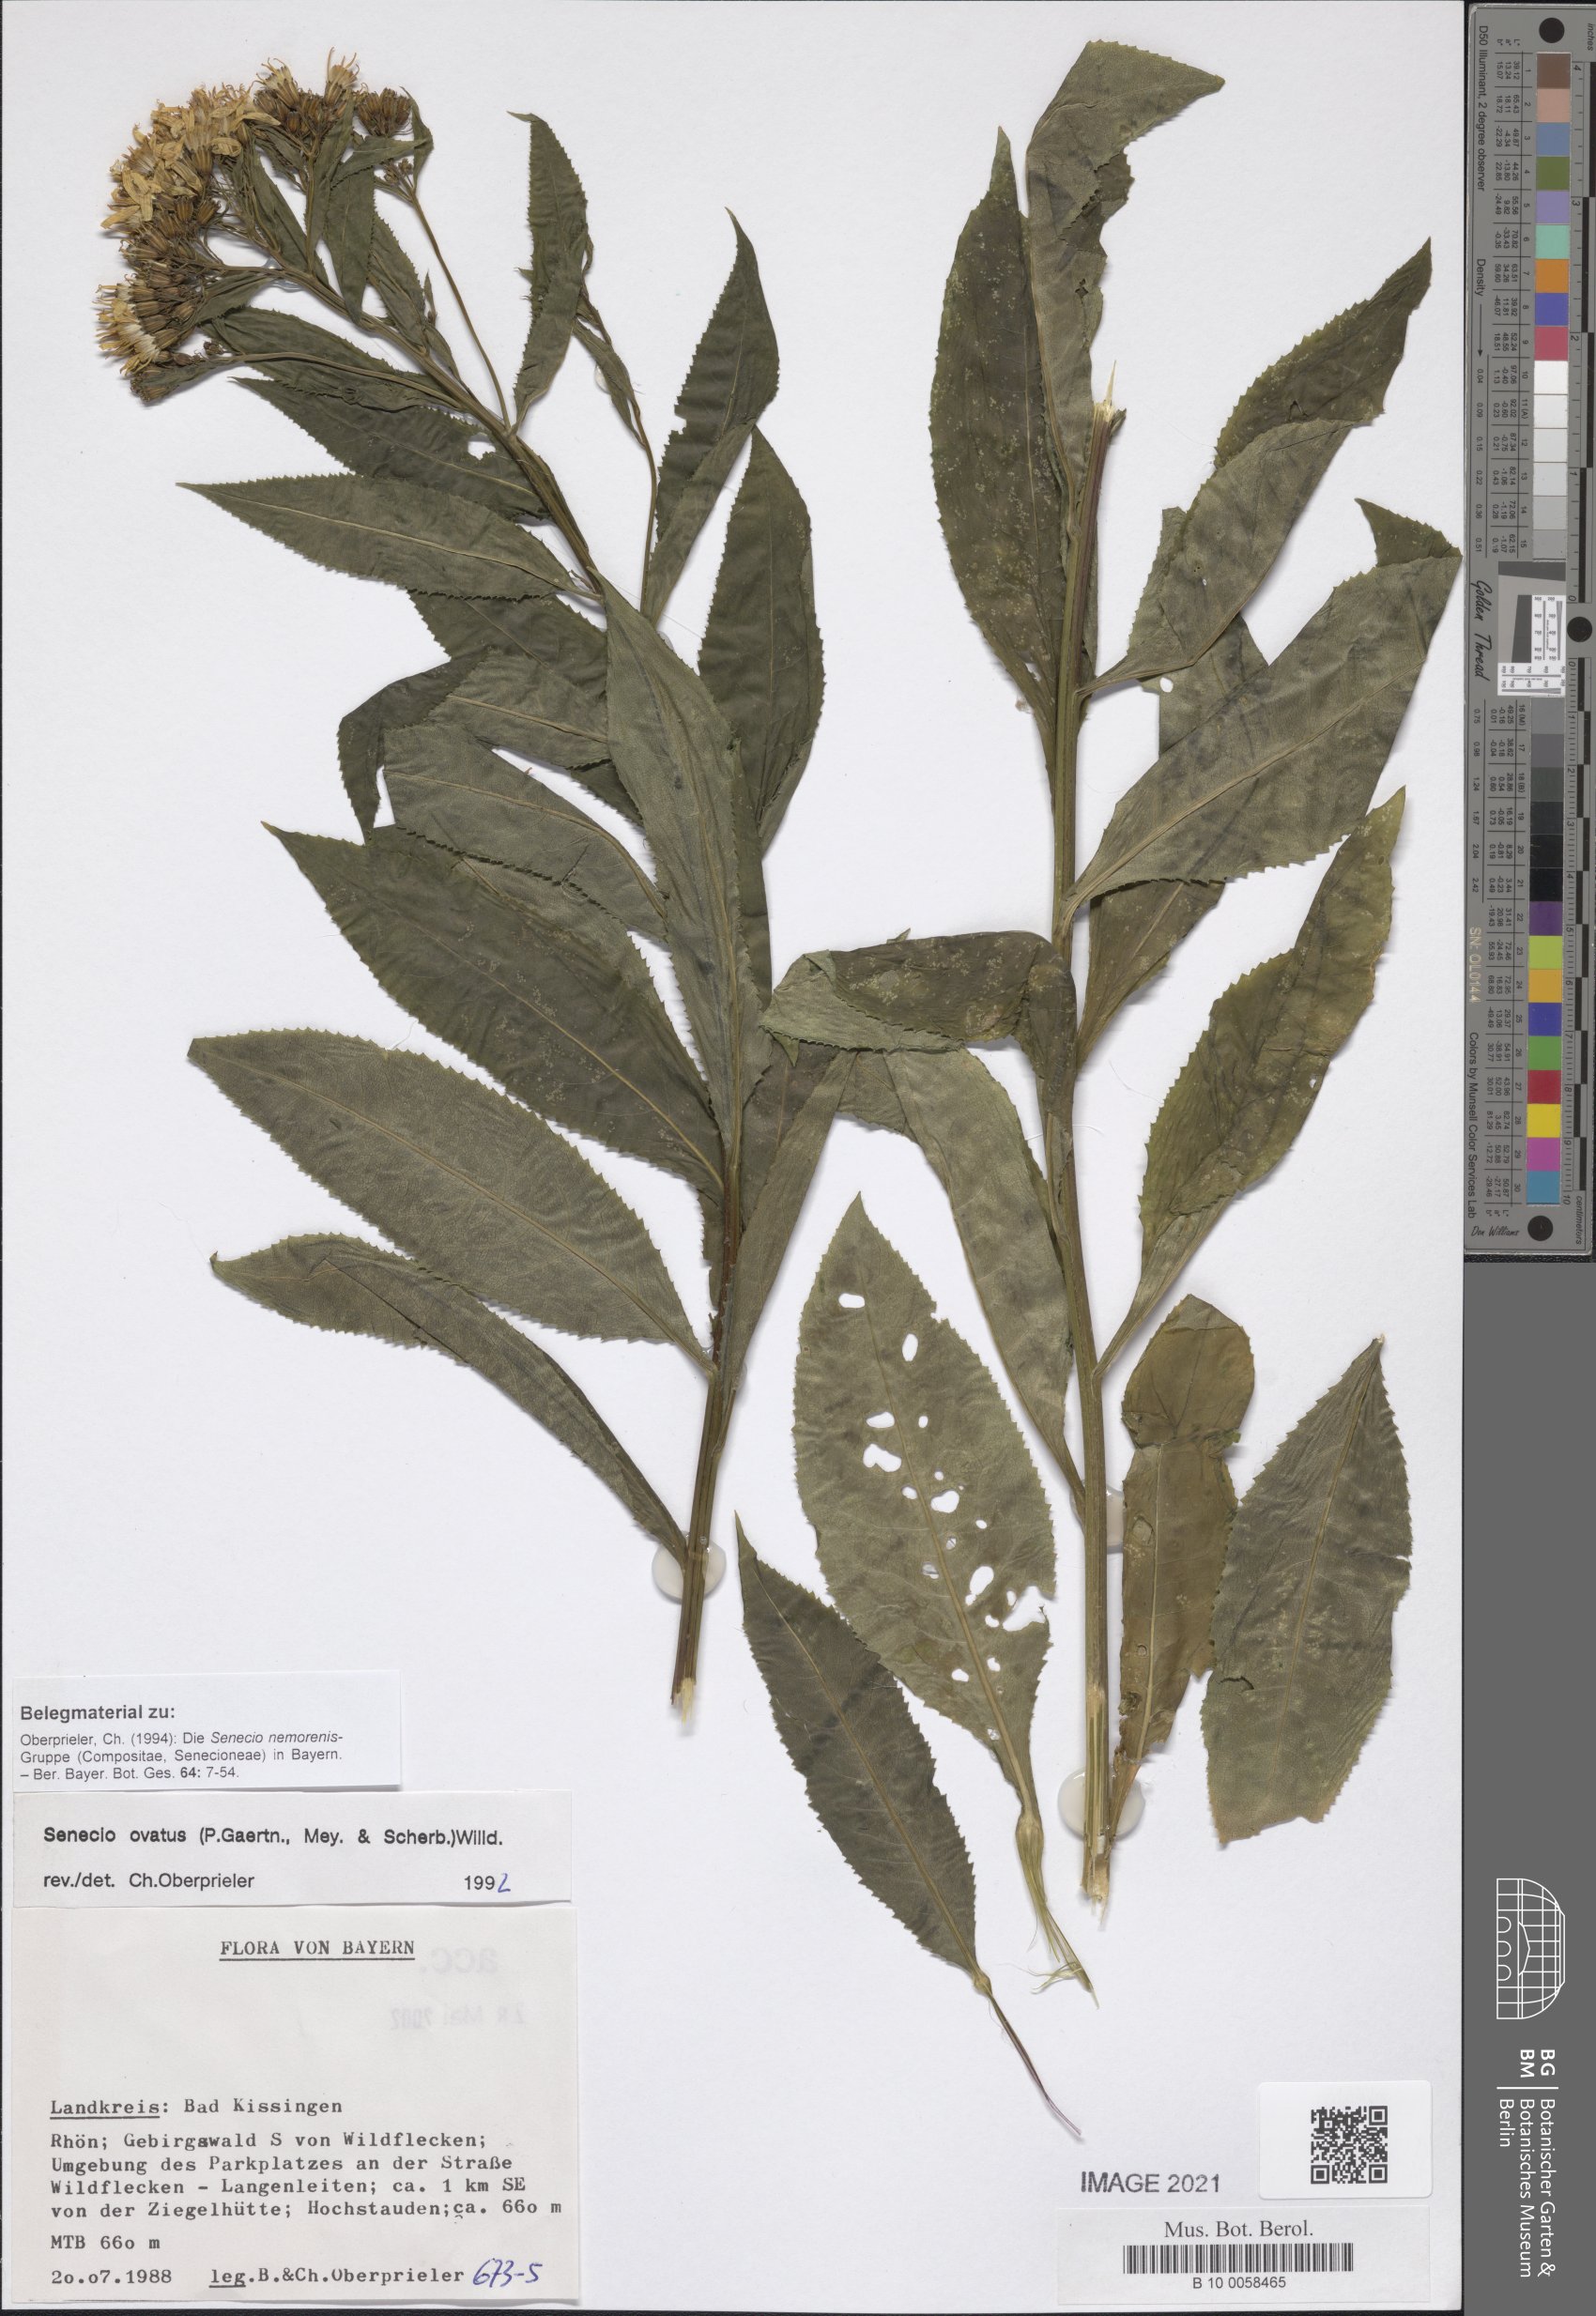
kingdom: Plantae
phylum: Tracheophyta
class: Magnoliopsida
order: Asterales
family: Asteraceae
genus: Senecio
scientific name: Senecio ovatus
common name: Wood ragwort
